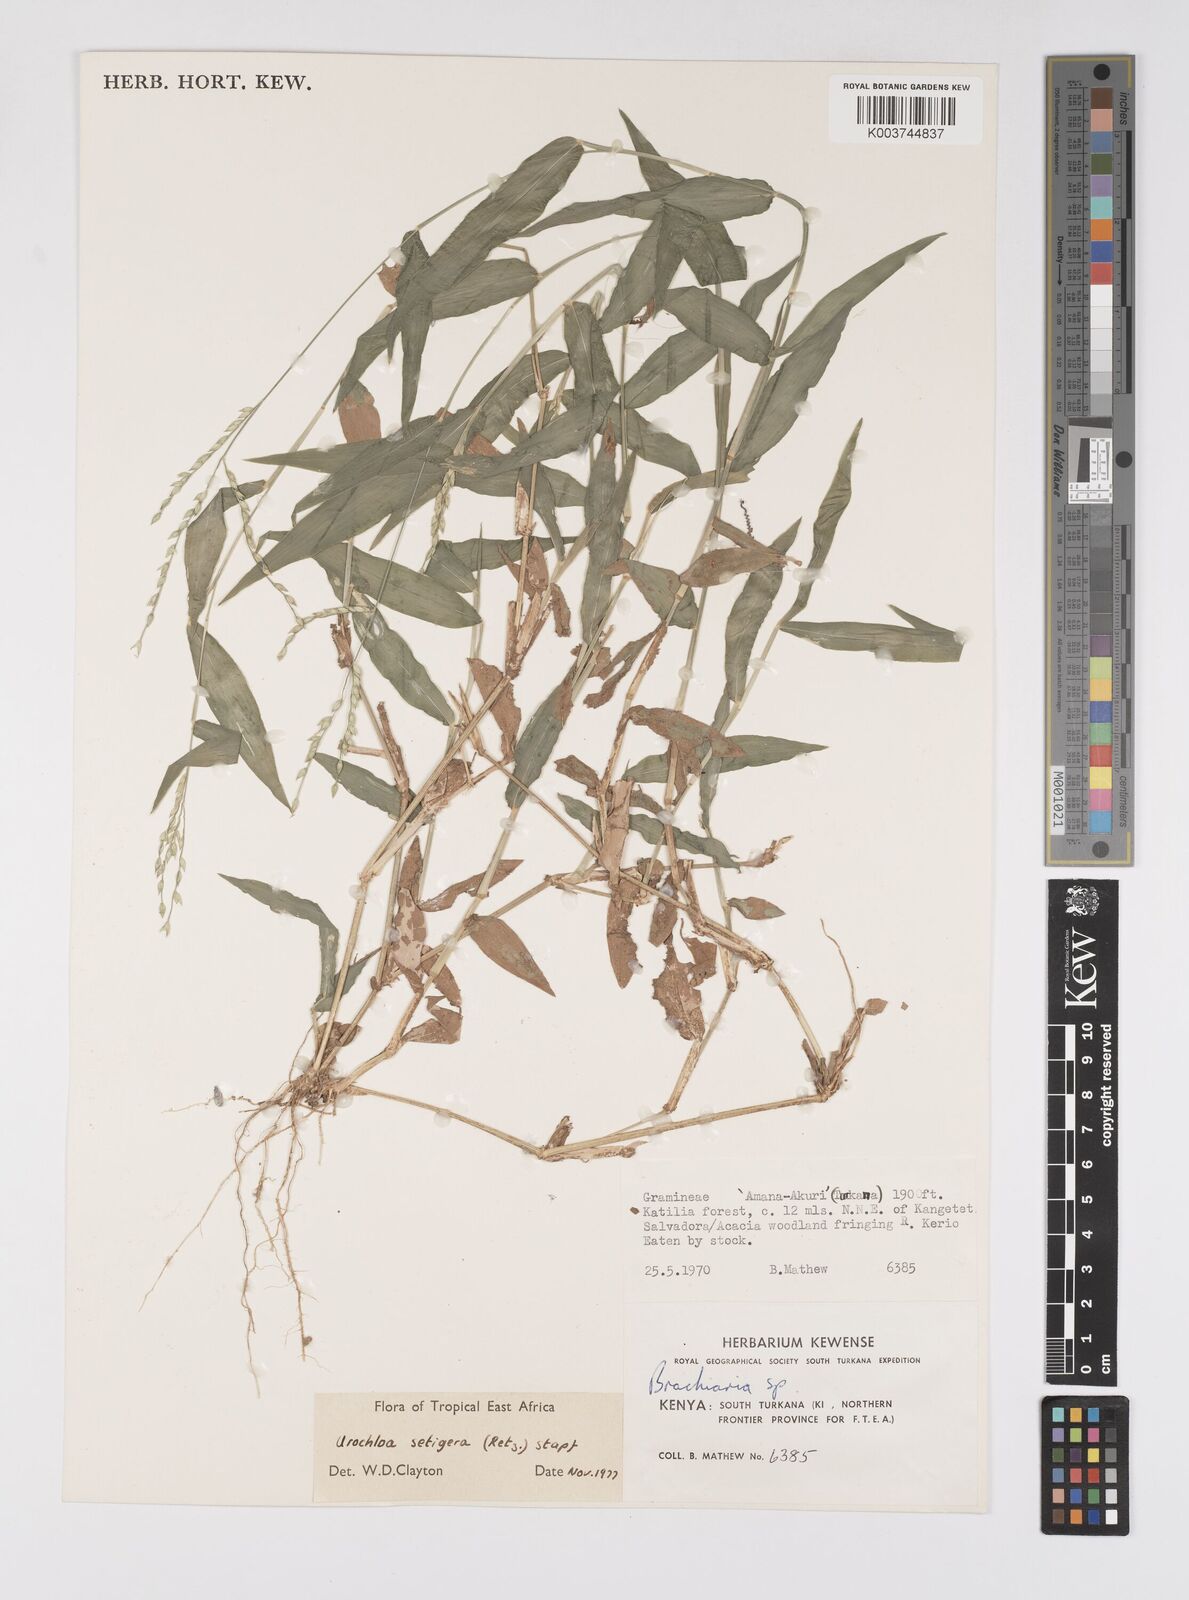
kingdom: Plantae
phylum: Tracheophyta
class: Liliopsida
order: Poales
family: Poaceae
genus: Urochloa
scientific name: Urochloa trichopodioides
